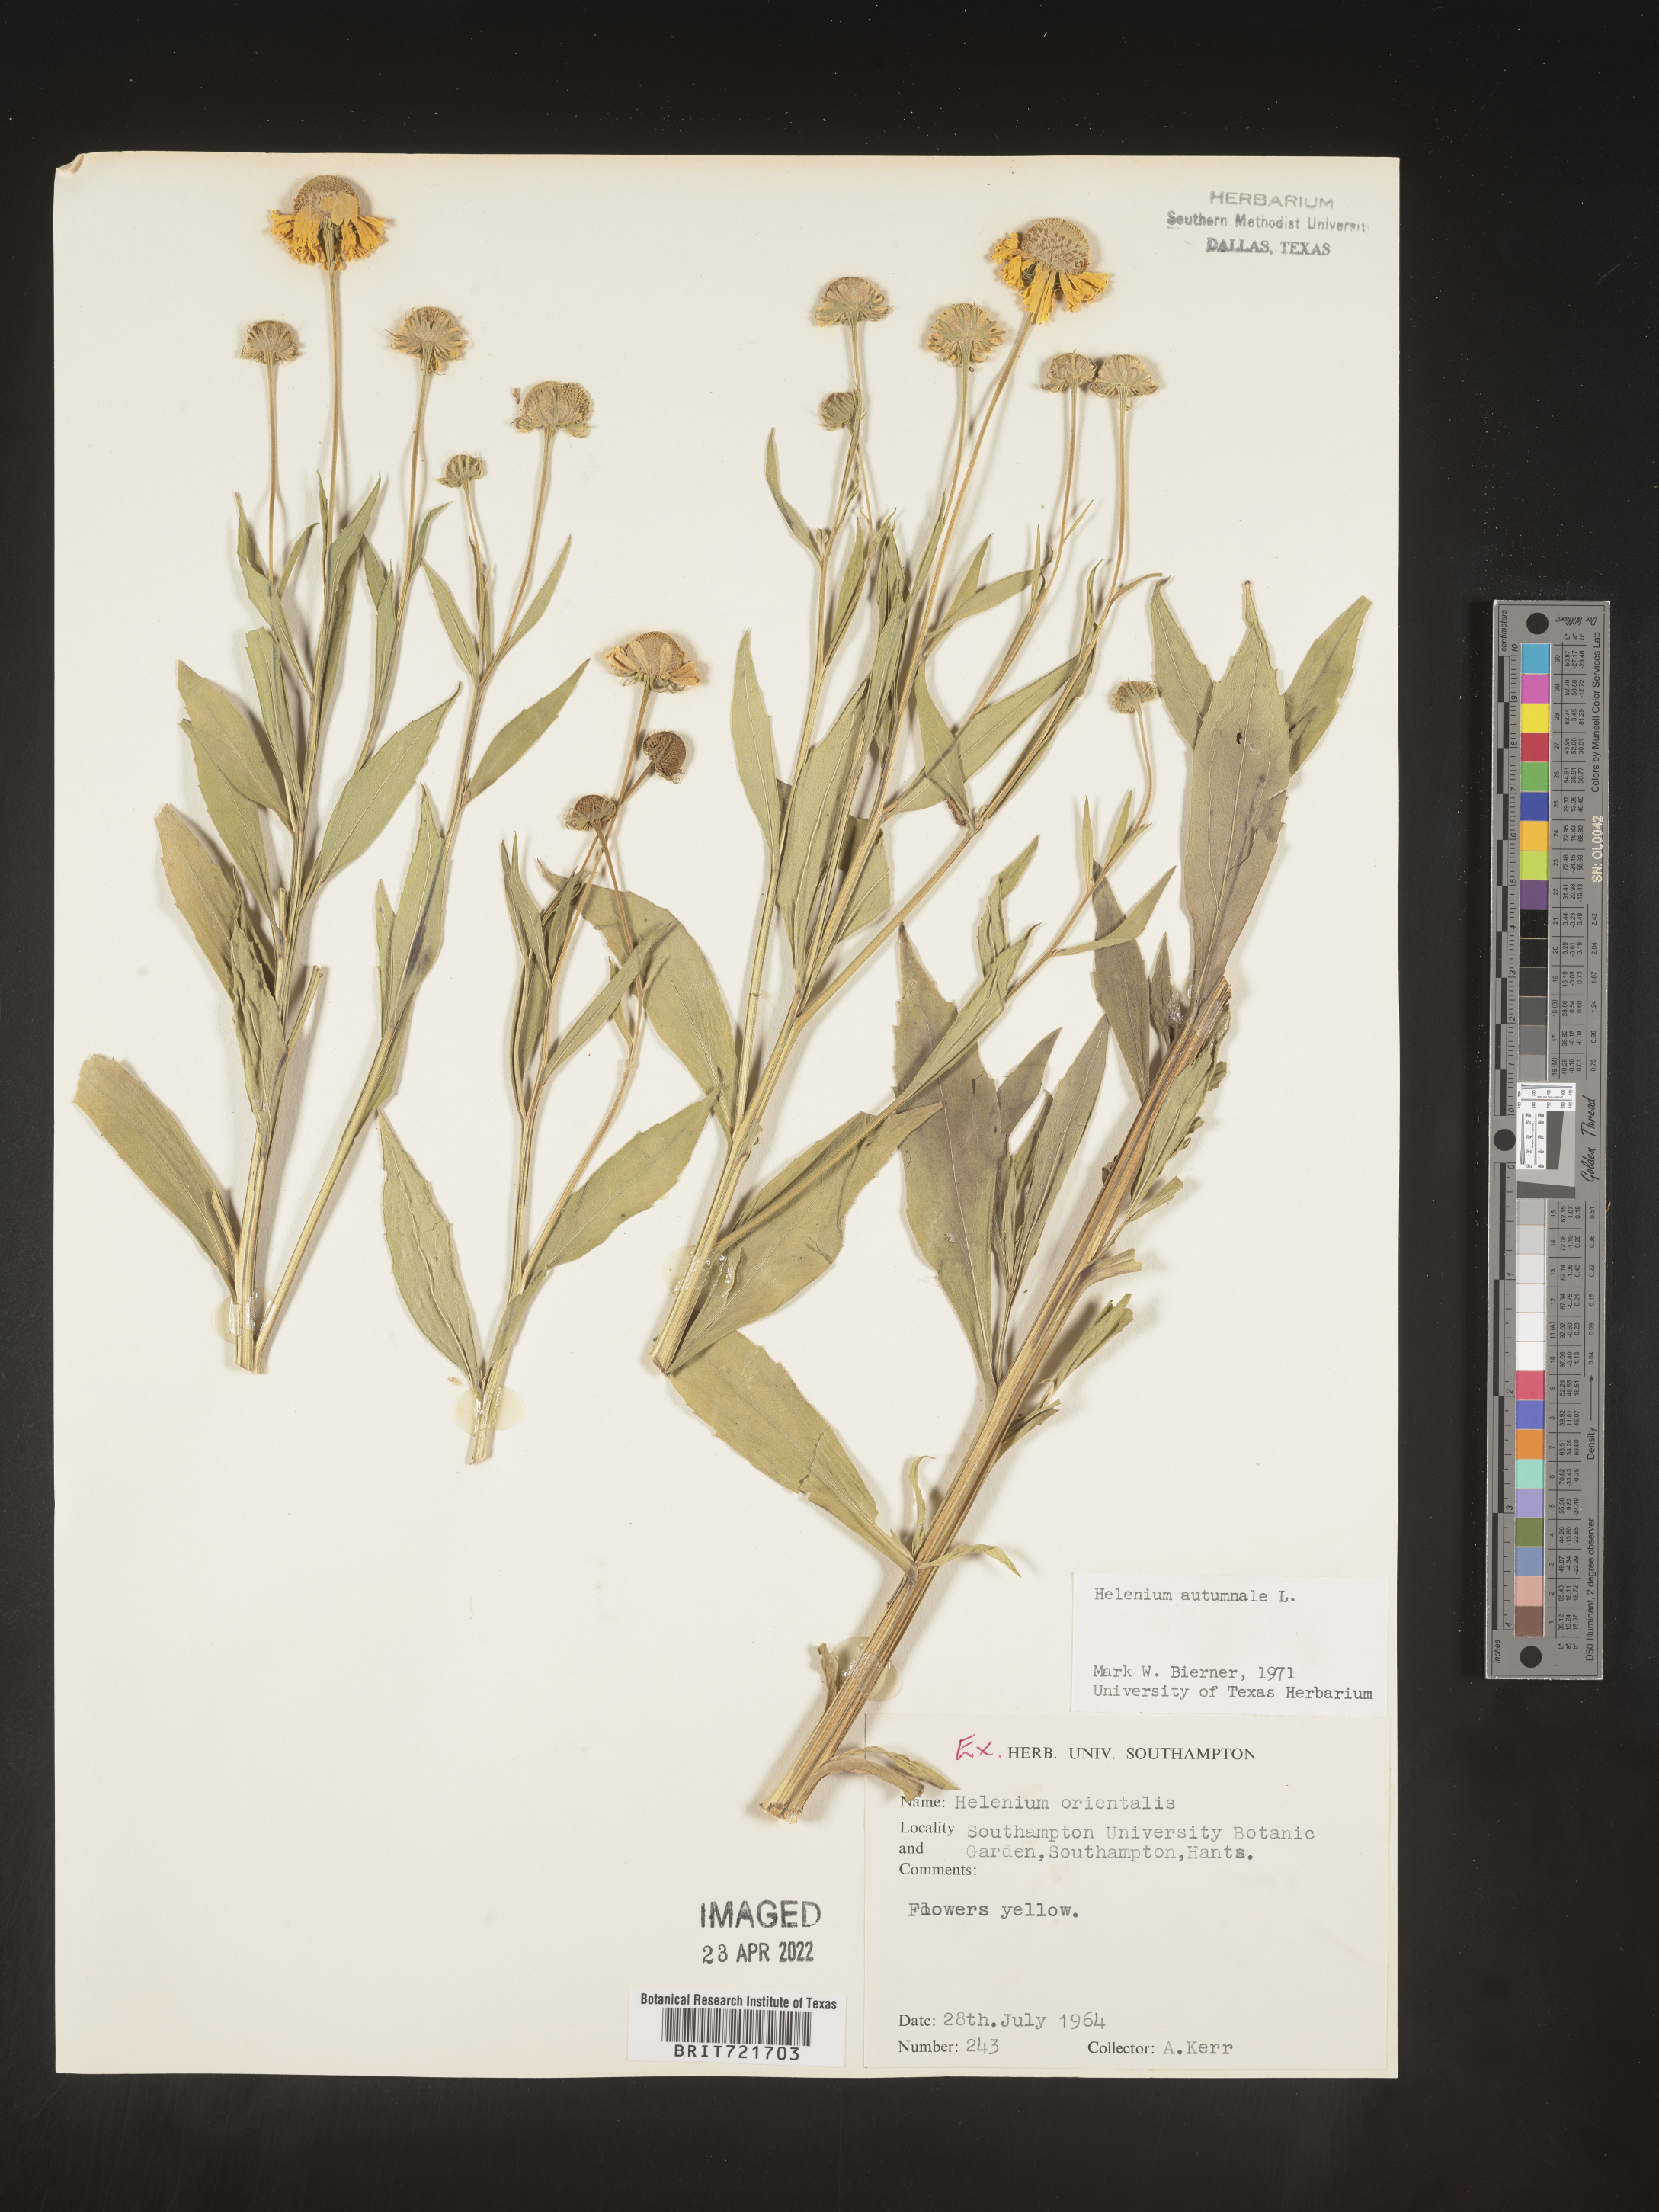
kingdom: Plantae
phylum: Tracheophyta
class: Magnoliopsida
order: Asterales
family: Asteraceae
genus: Helenium
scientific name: Helenium
